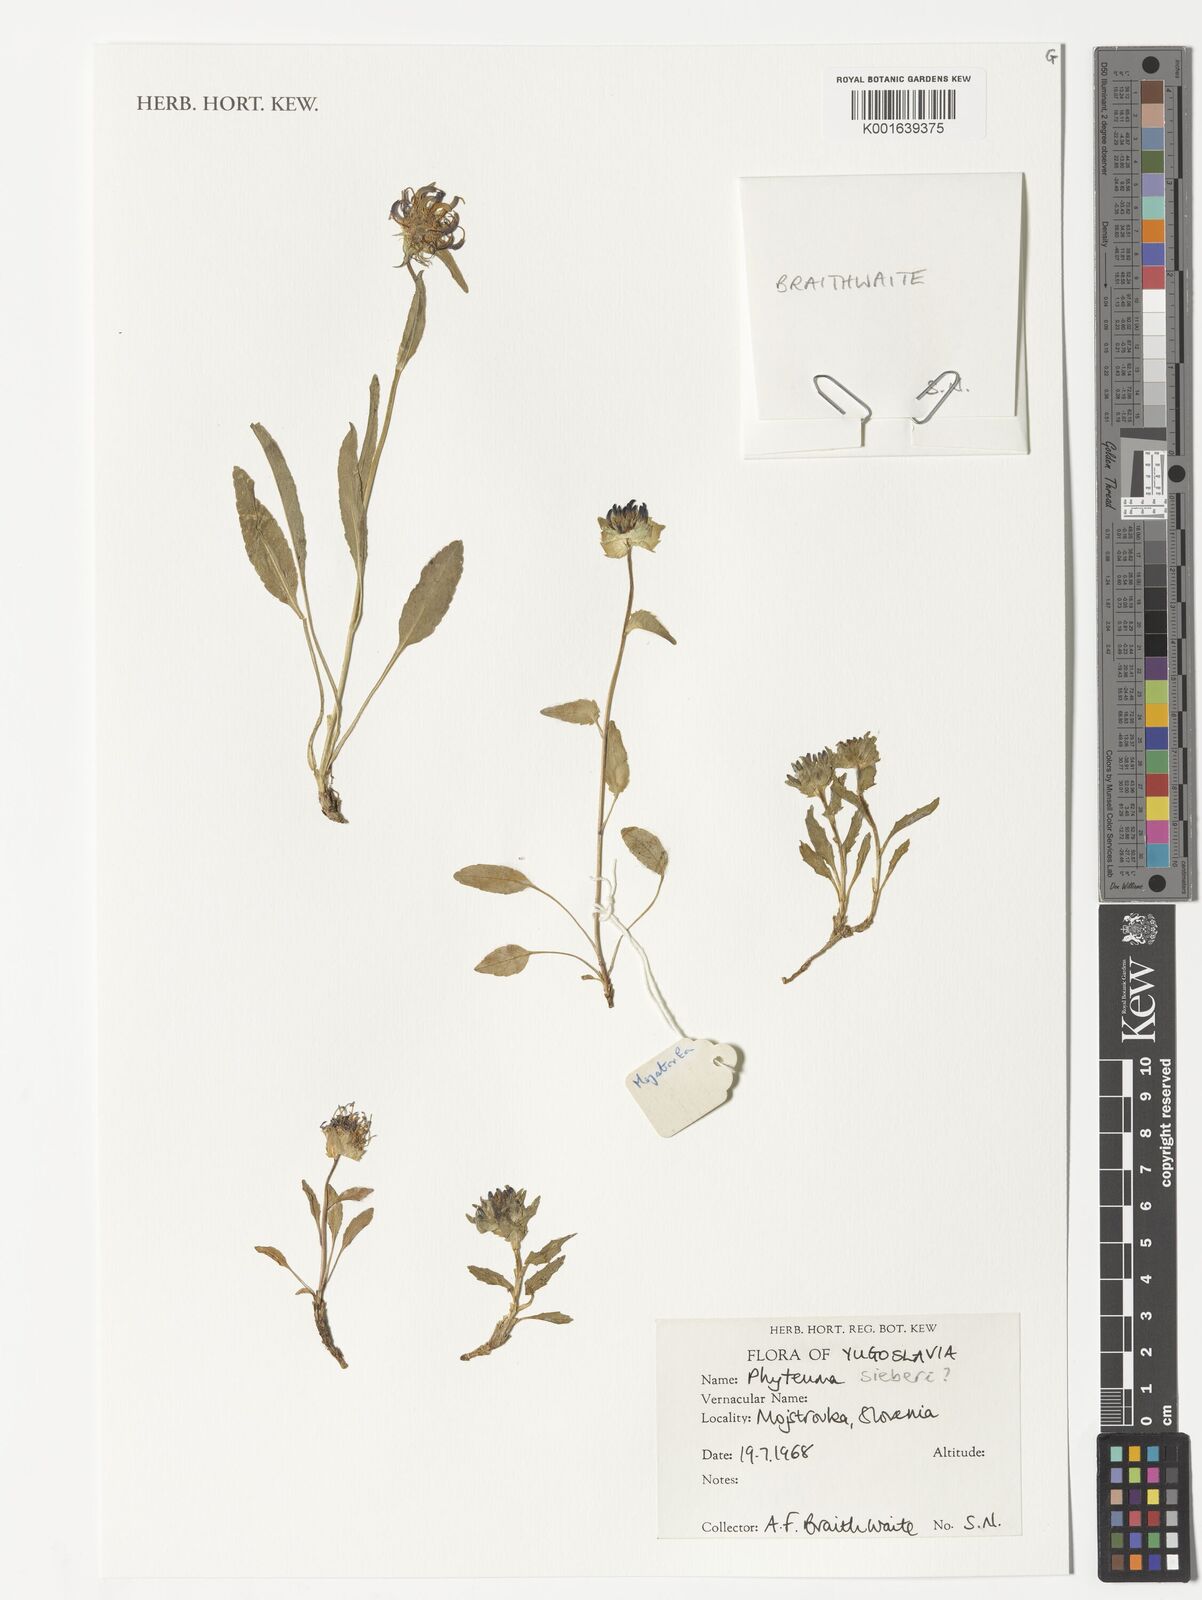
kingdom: Plantae
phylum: Tracheophyta
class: Magnoliopsida
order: Asterales
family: Campanulaceae
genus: Phyteuma
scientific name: Phyteuma sieberi
